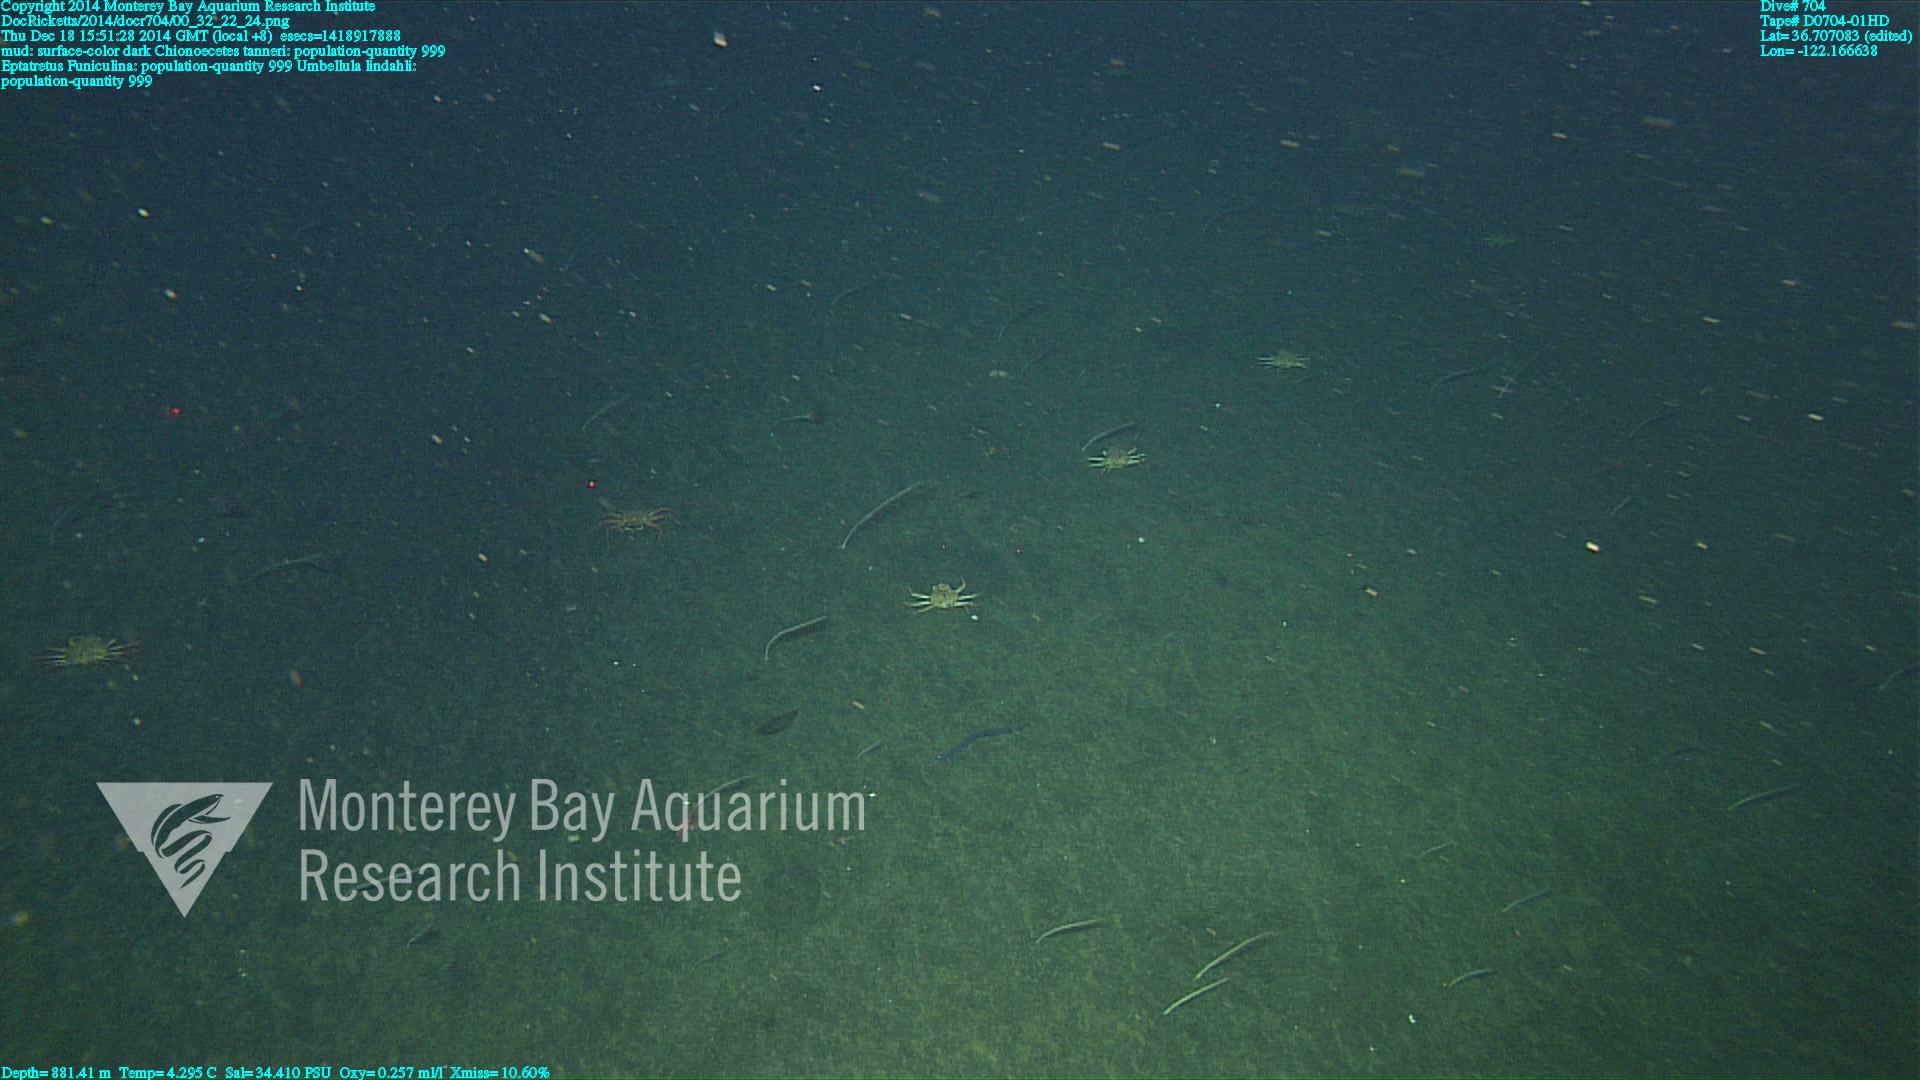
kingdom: Animalia
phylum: Cnidaria
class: Anthozoa
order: Scleralcyonacea
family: Funiculinidae
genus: Funiculina
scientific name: Funiculina
